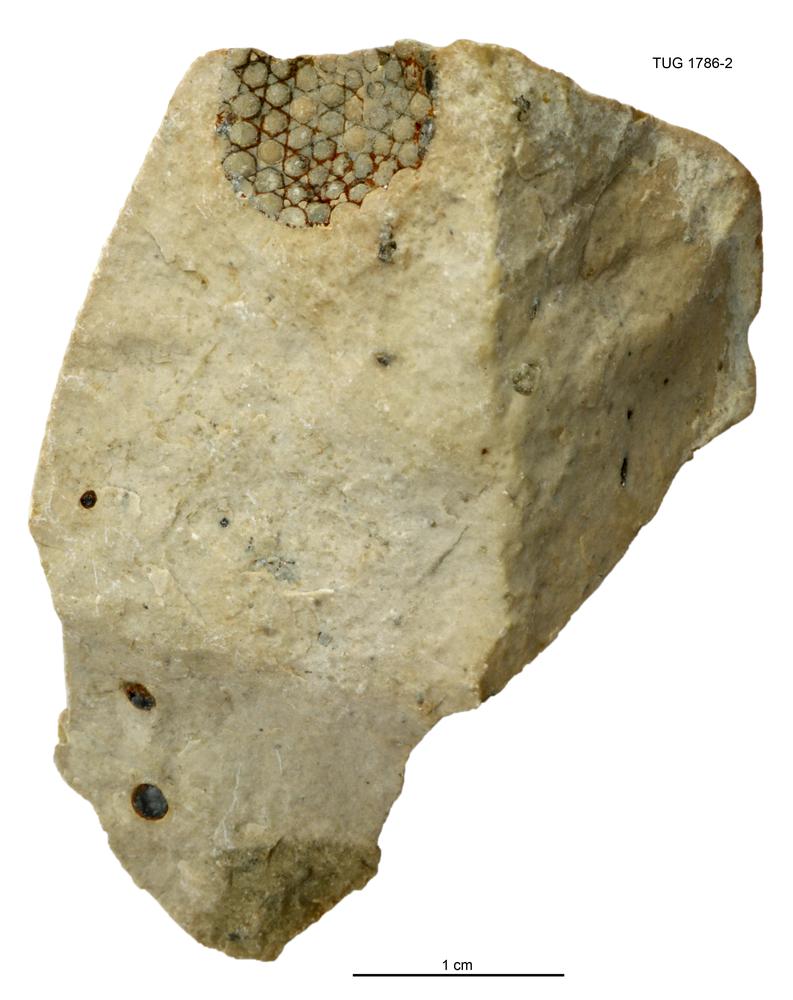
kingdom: Plantae
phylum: Chlorophyta
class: Ulvophyceae
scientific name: Ulvophyceae
